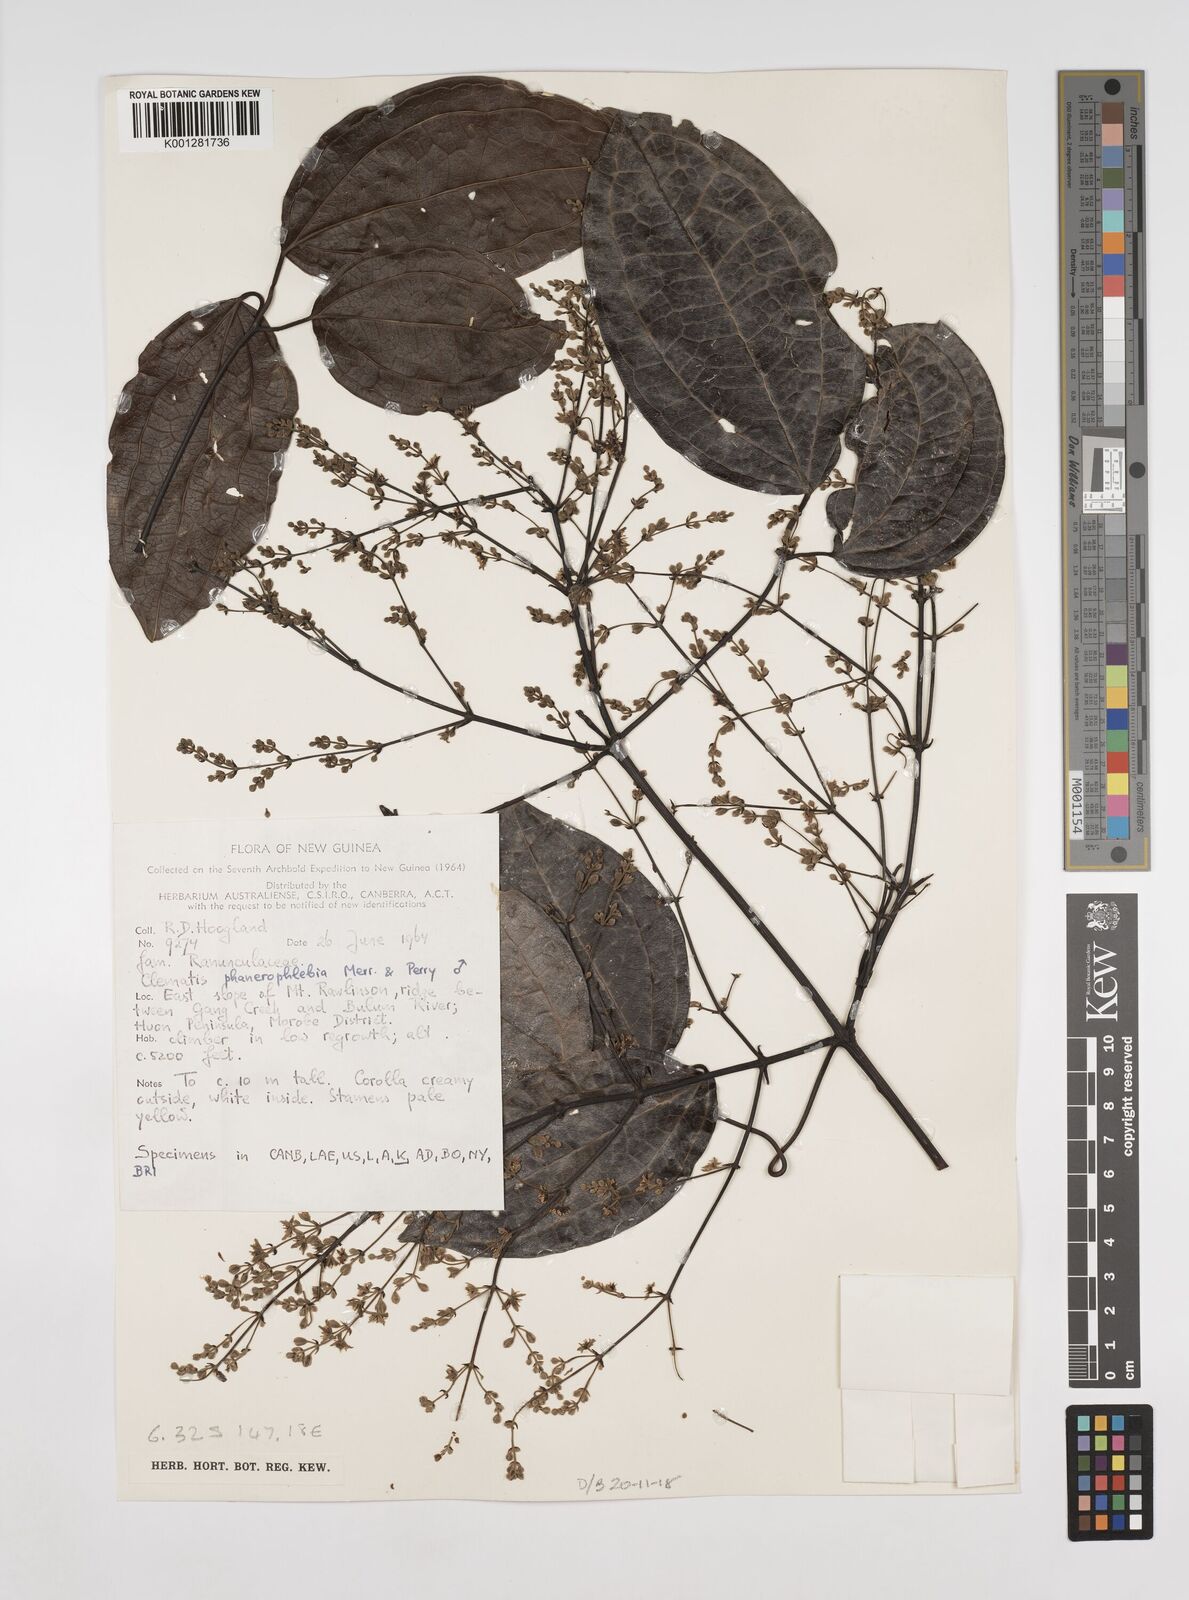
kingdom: Plantae
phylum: Tracheophyta
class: Magnoliopsida
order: Ranunculales
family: Ranunculaceae
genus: Clematis
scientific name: Clematis phanerophlebia
